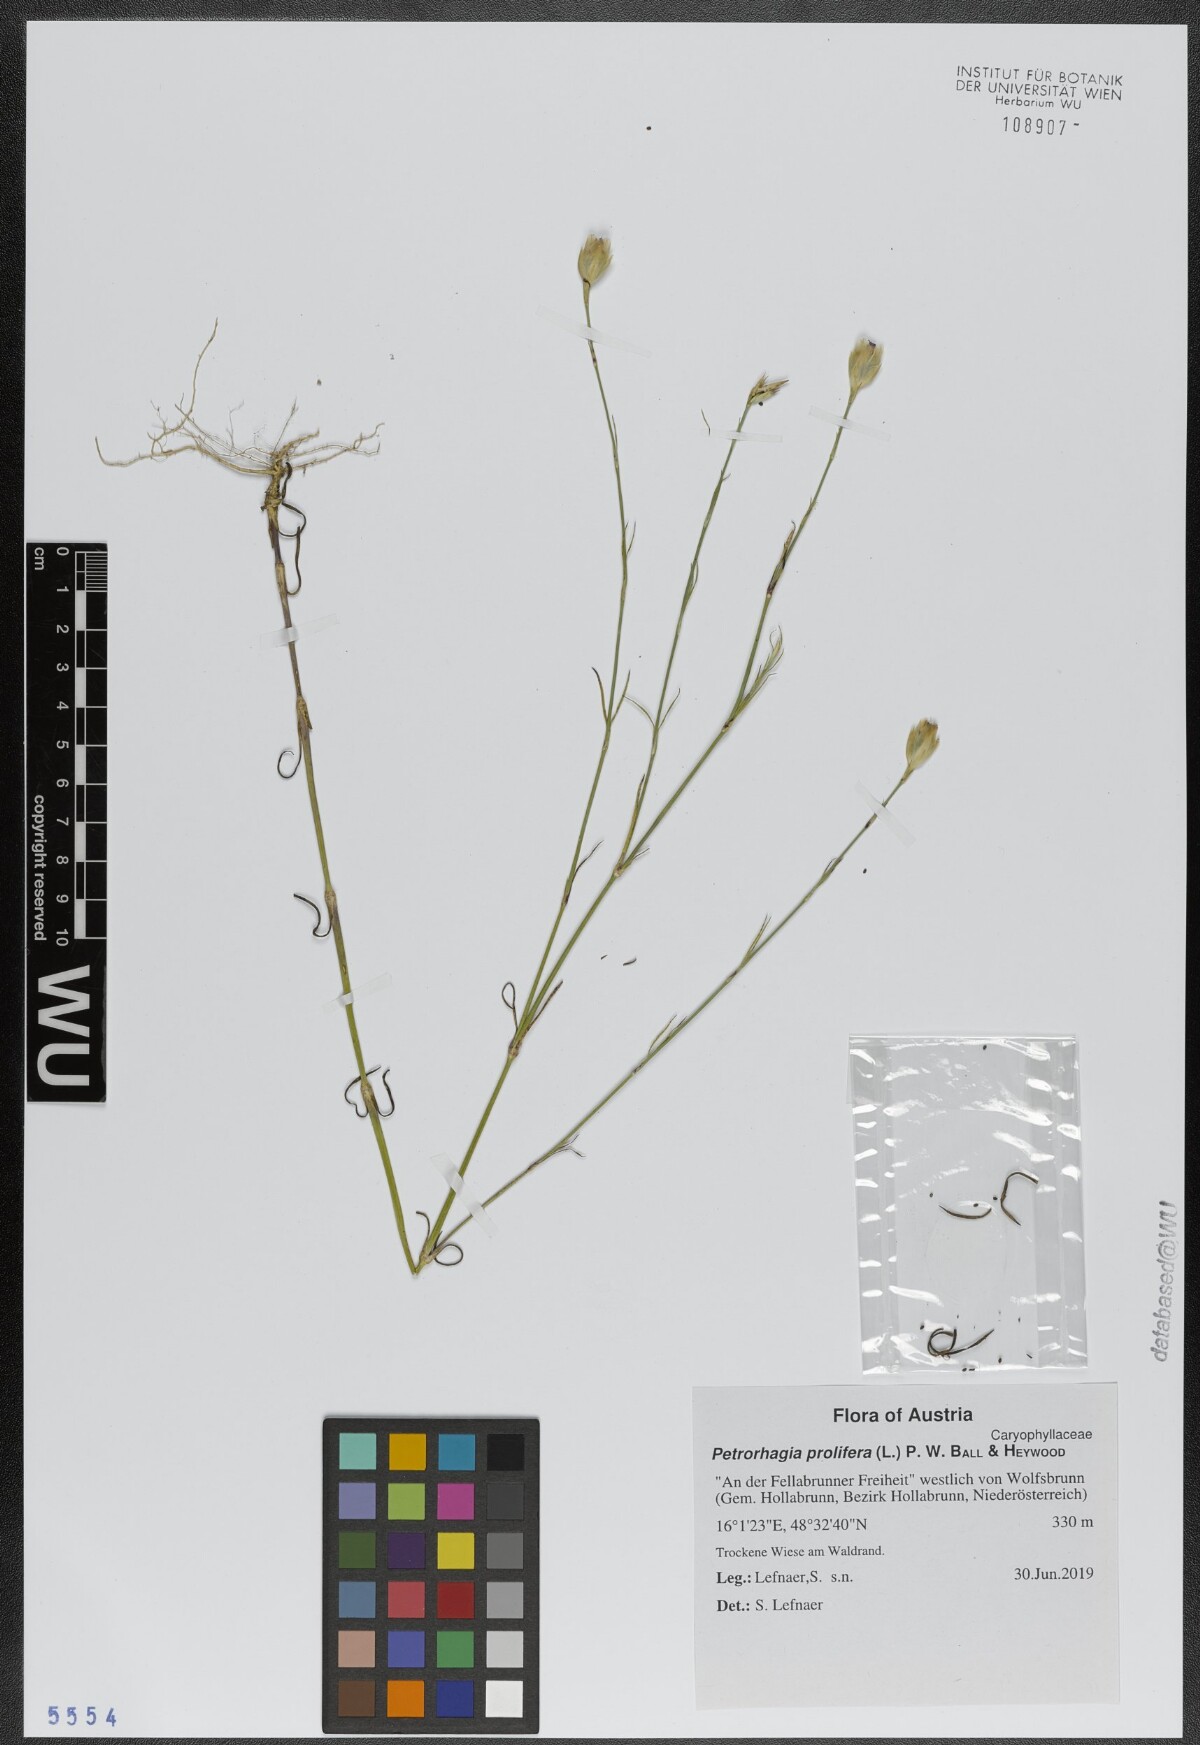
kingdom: Plantae
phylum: Tracheophyta
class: Magnoliopsida
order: Caryophyllales
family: Caryophyllaceae
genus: Petrorhagia
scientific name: Petrorhagia prolifera
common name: Proliferous pink
